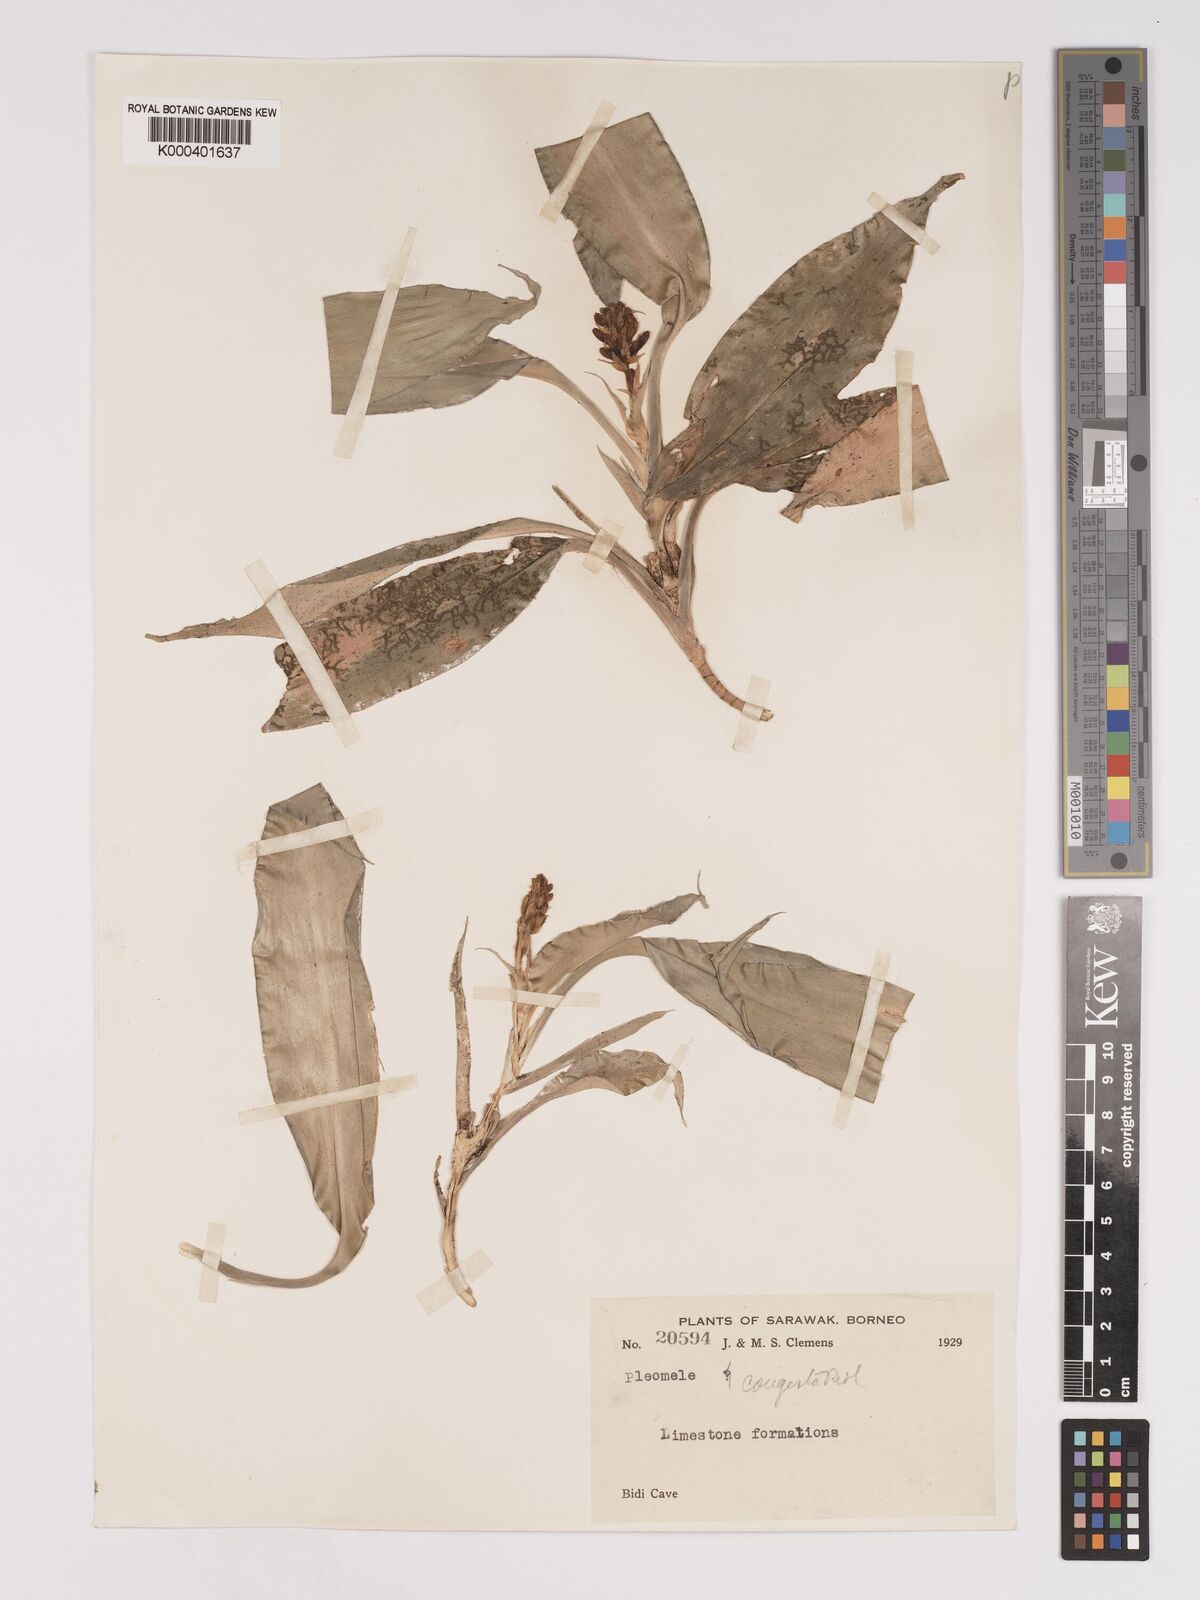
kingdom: Plantae
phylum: Tracheophyta
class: Liliopsida
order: Asparagales
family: Asparagaceae
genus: Dracaena
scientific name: Dracaena chiniana
